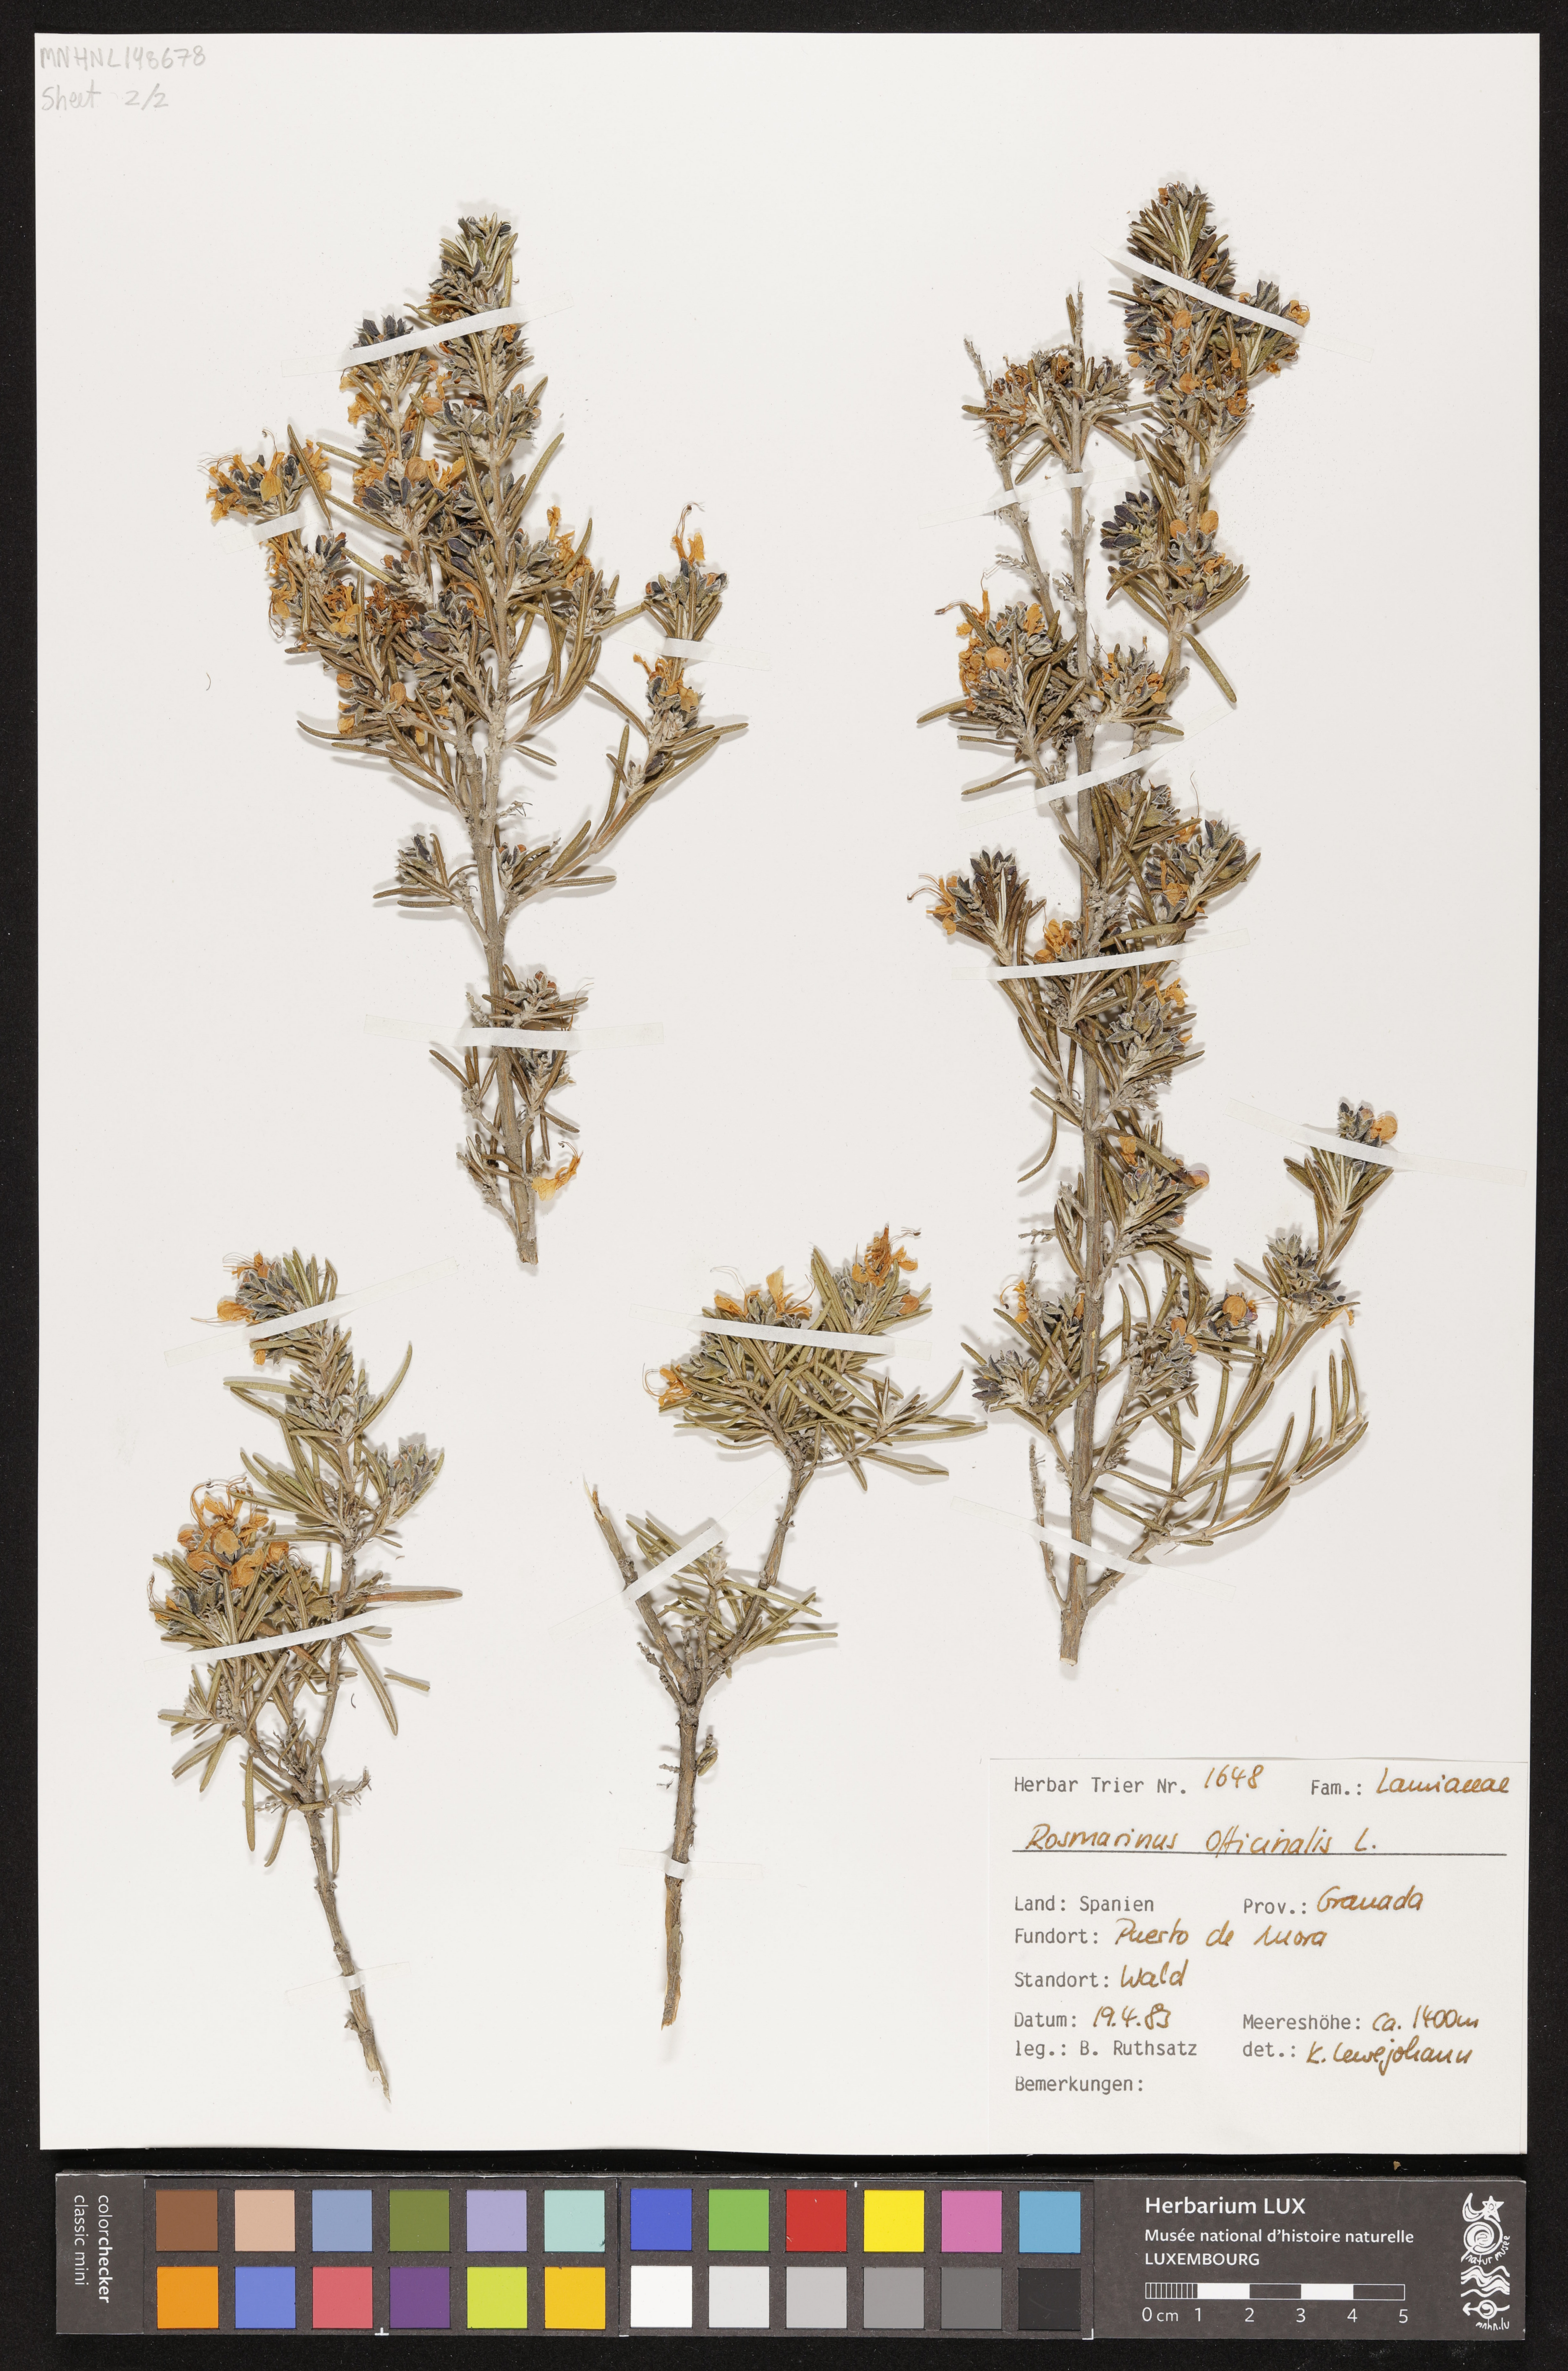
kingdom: Plantae
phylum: Tracheophyta
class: Magnoliopsida
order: Lamiales
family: Lamiaceae
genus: Salvia
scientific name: Salvia rosmarinus
